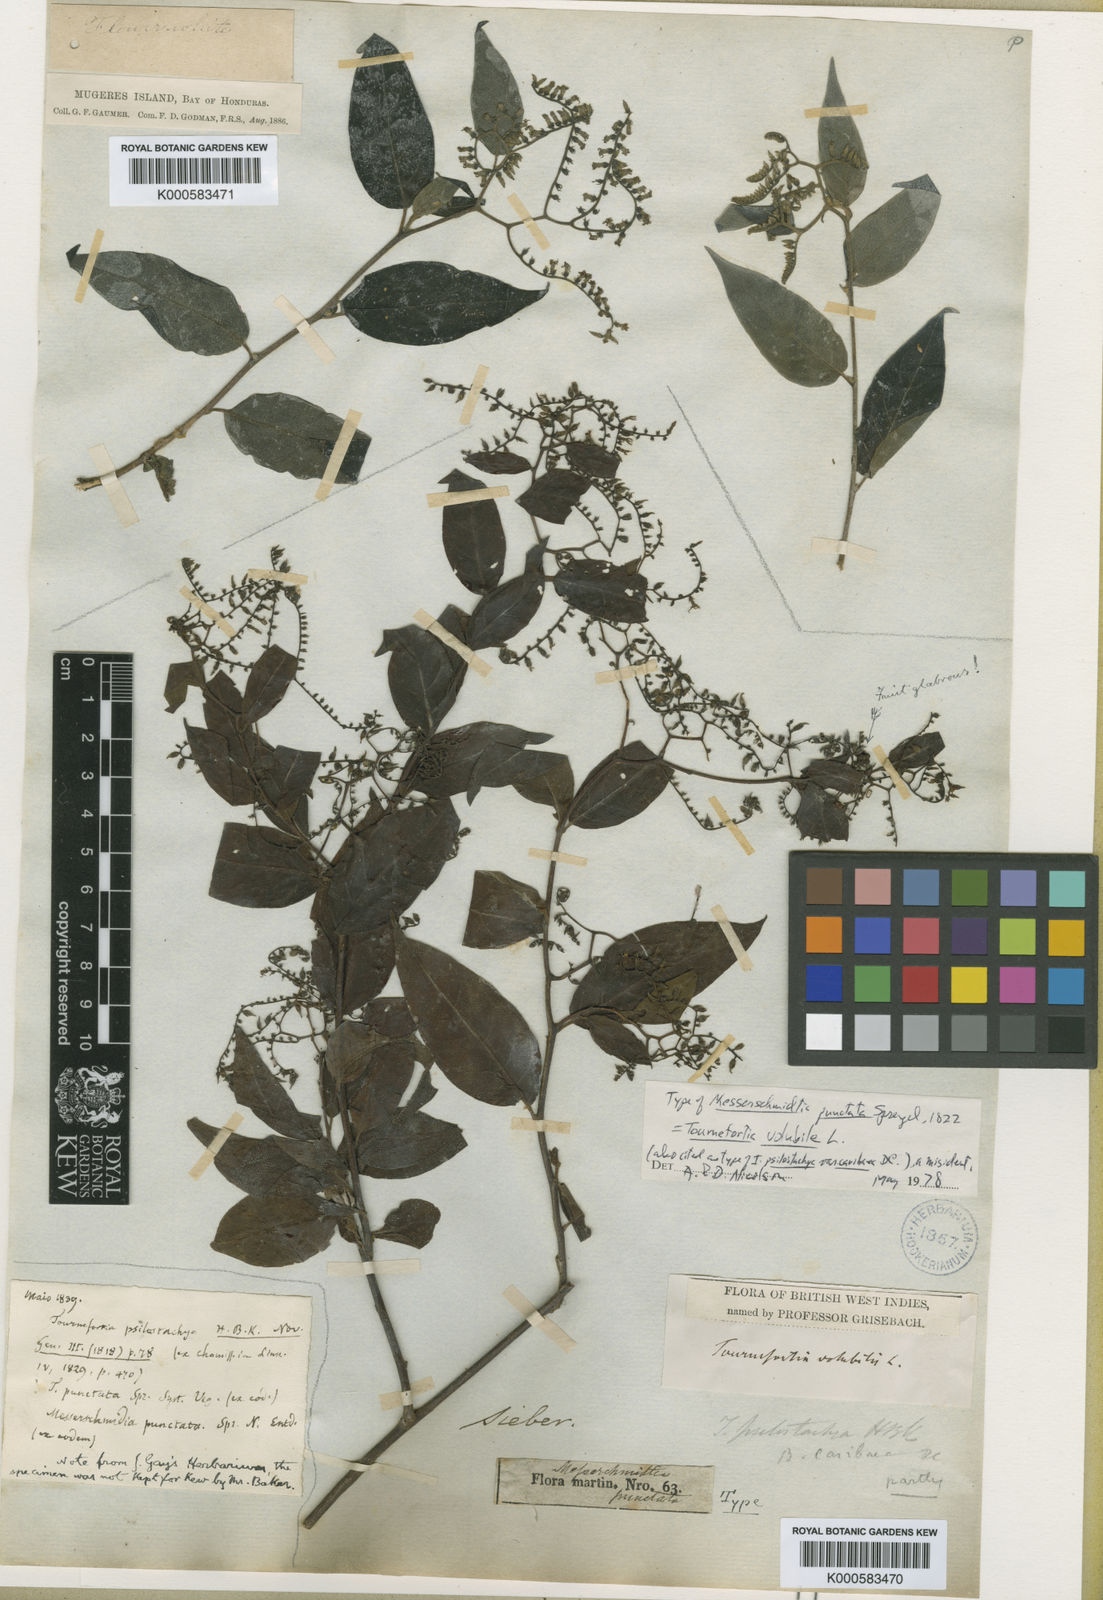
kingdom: Plantae
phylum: Tracheophyta
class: Magnoliopsida
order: Boraginales
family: Heliotropiaceae
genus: Myriopus
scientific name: Myriopus volubilis
